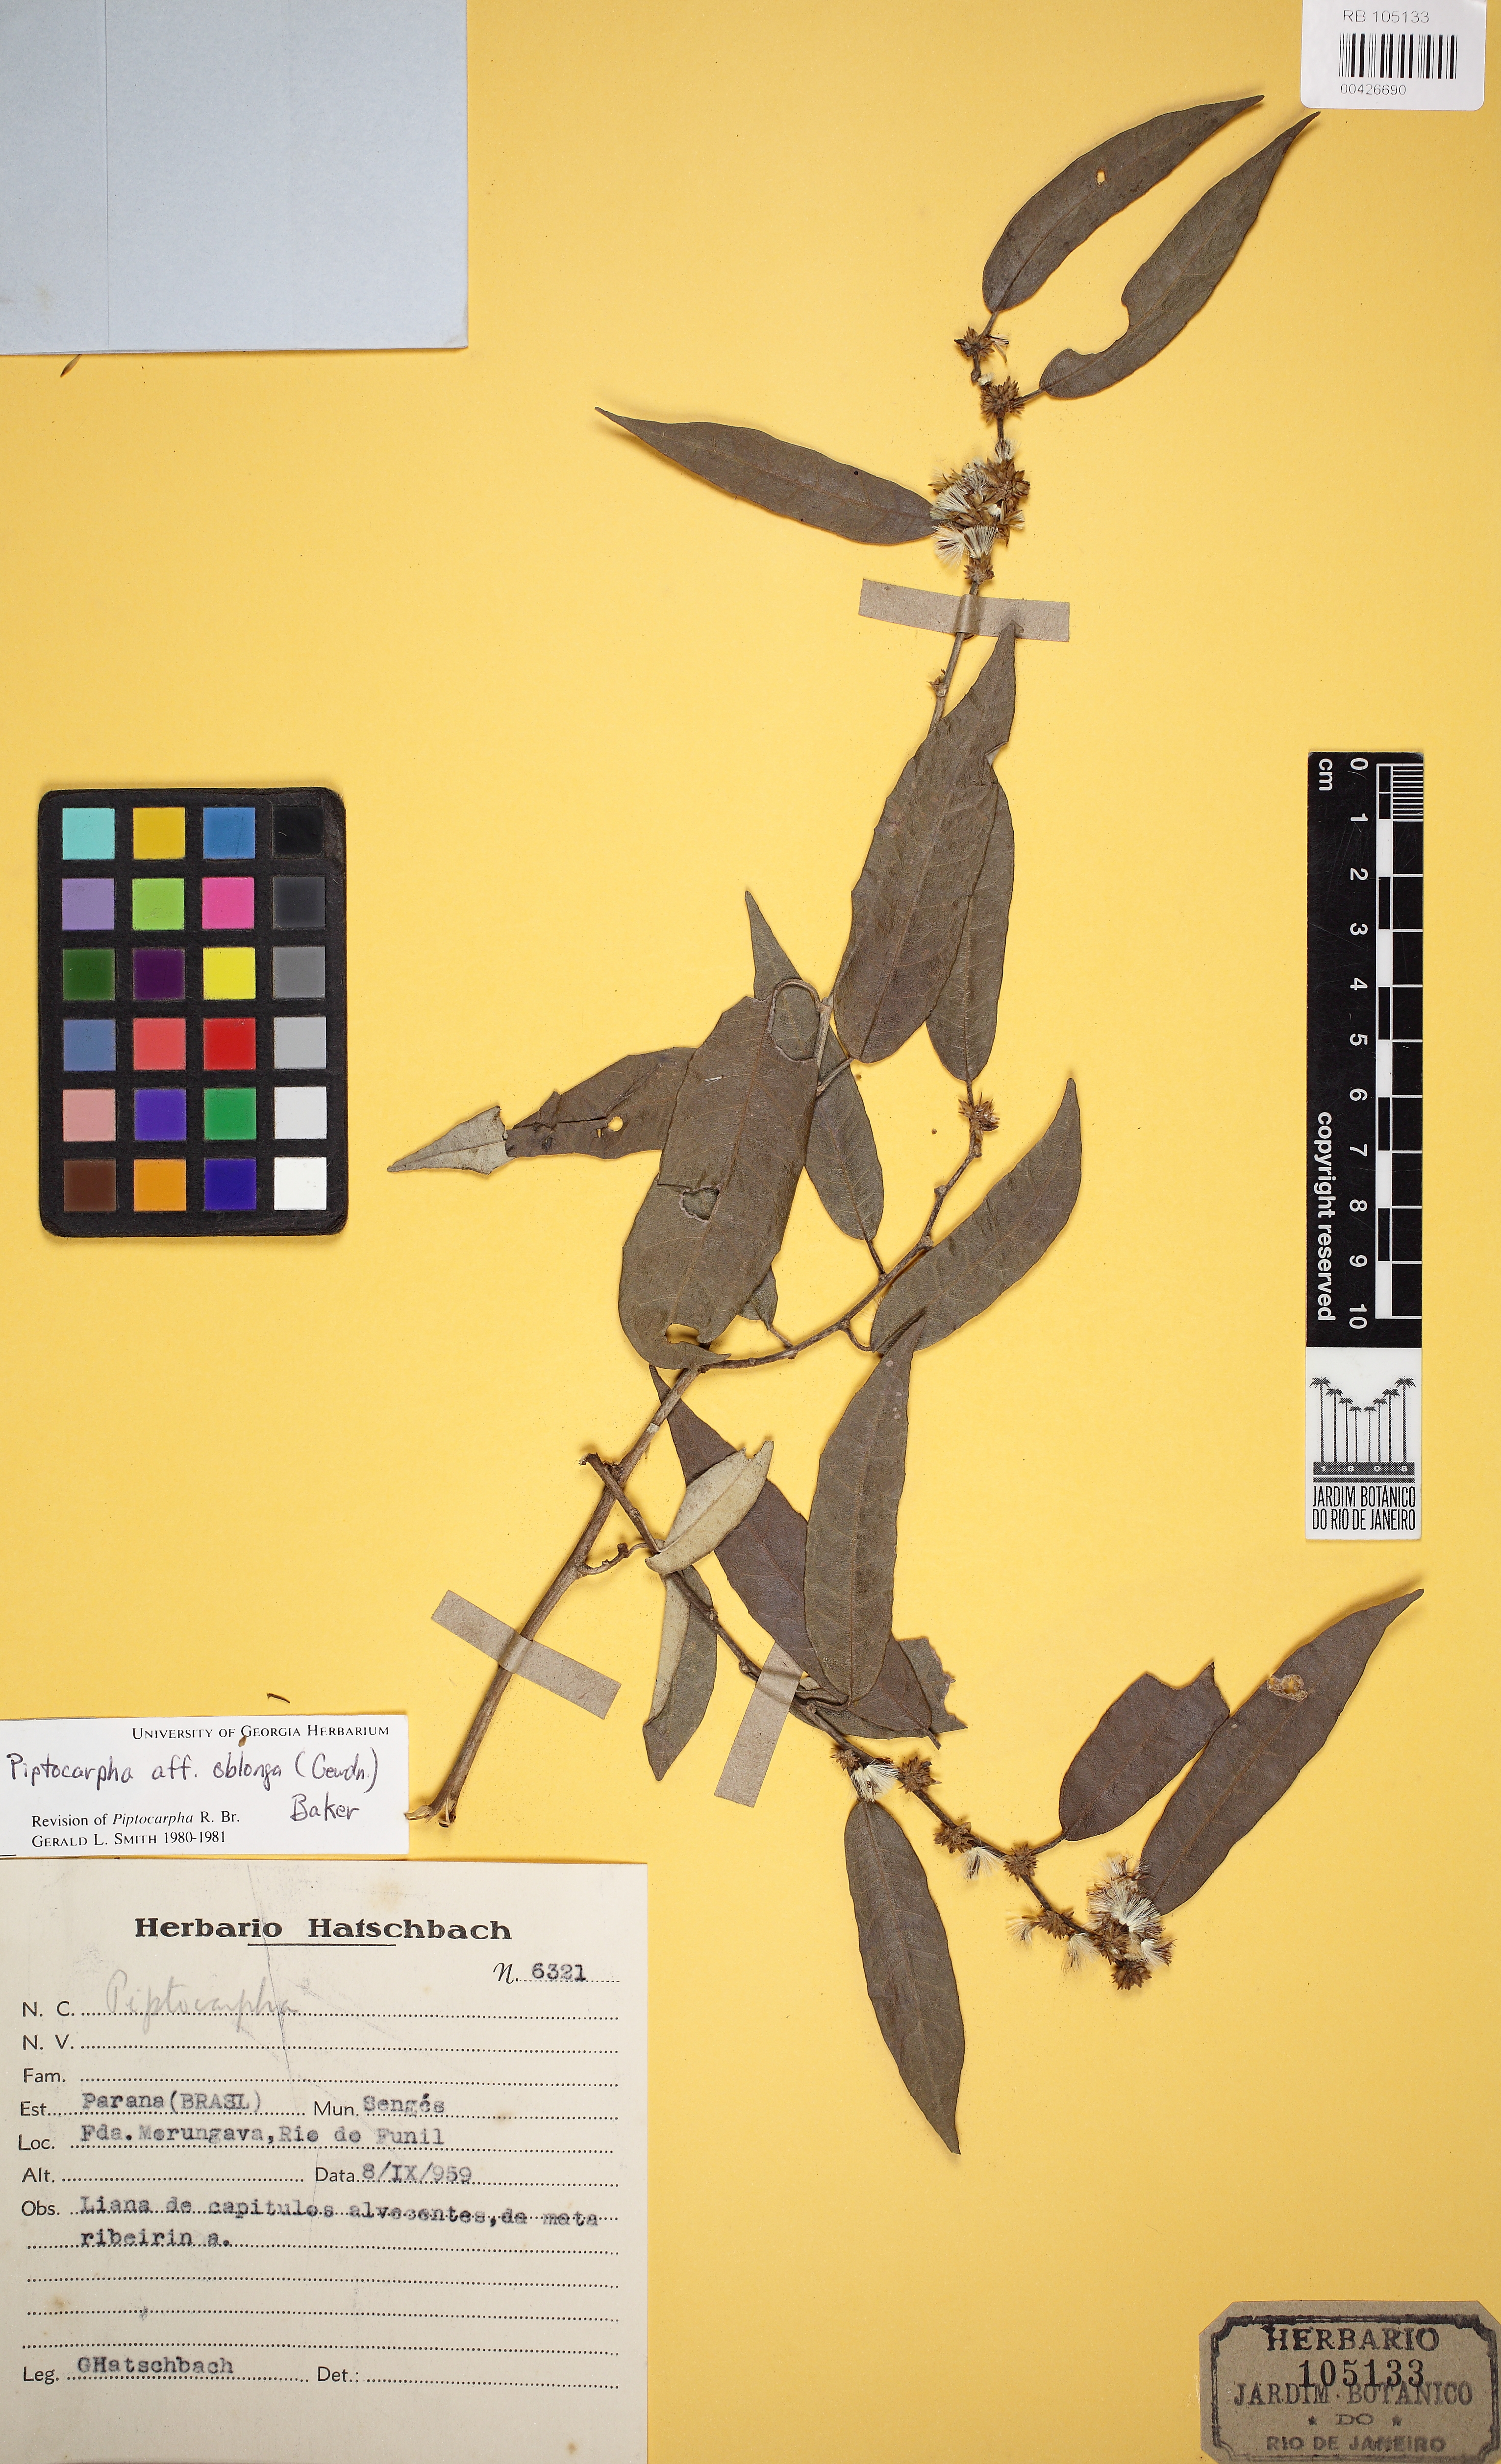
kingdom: Plantae
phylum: Tracheophyta
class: Magnoliopsida
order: Asterales
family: Asteraceae
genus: Piptocarpha
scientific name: Piptocarpha oblonga
